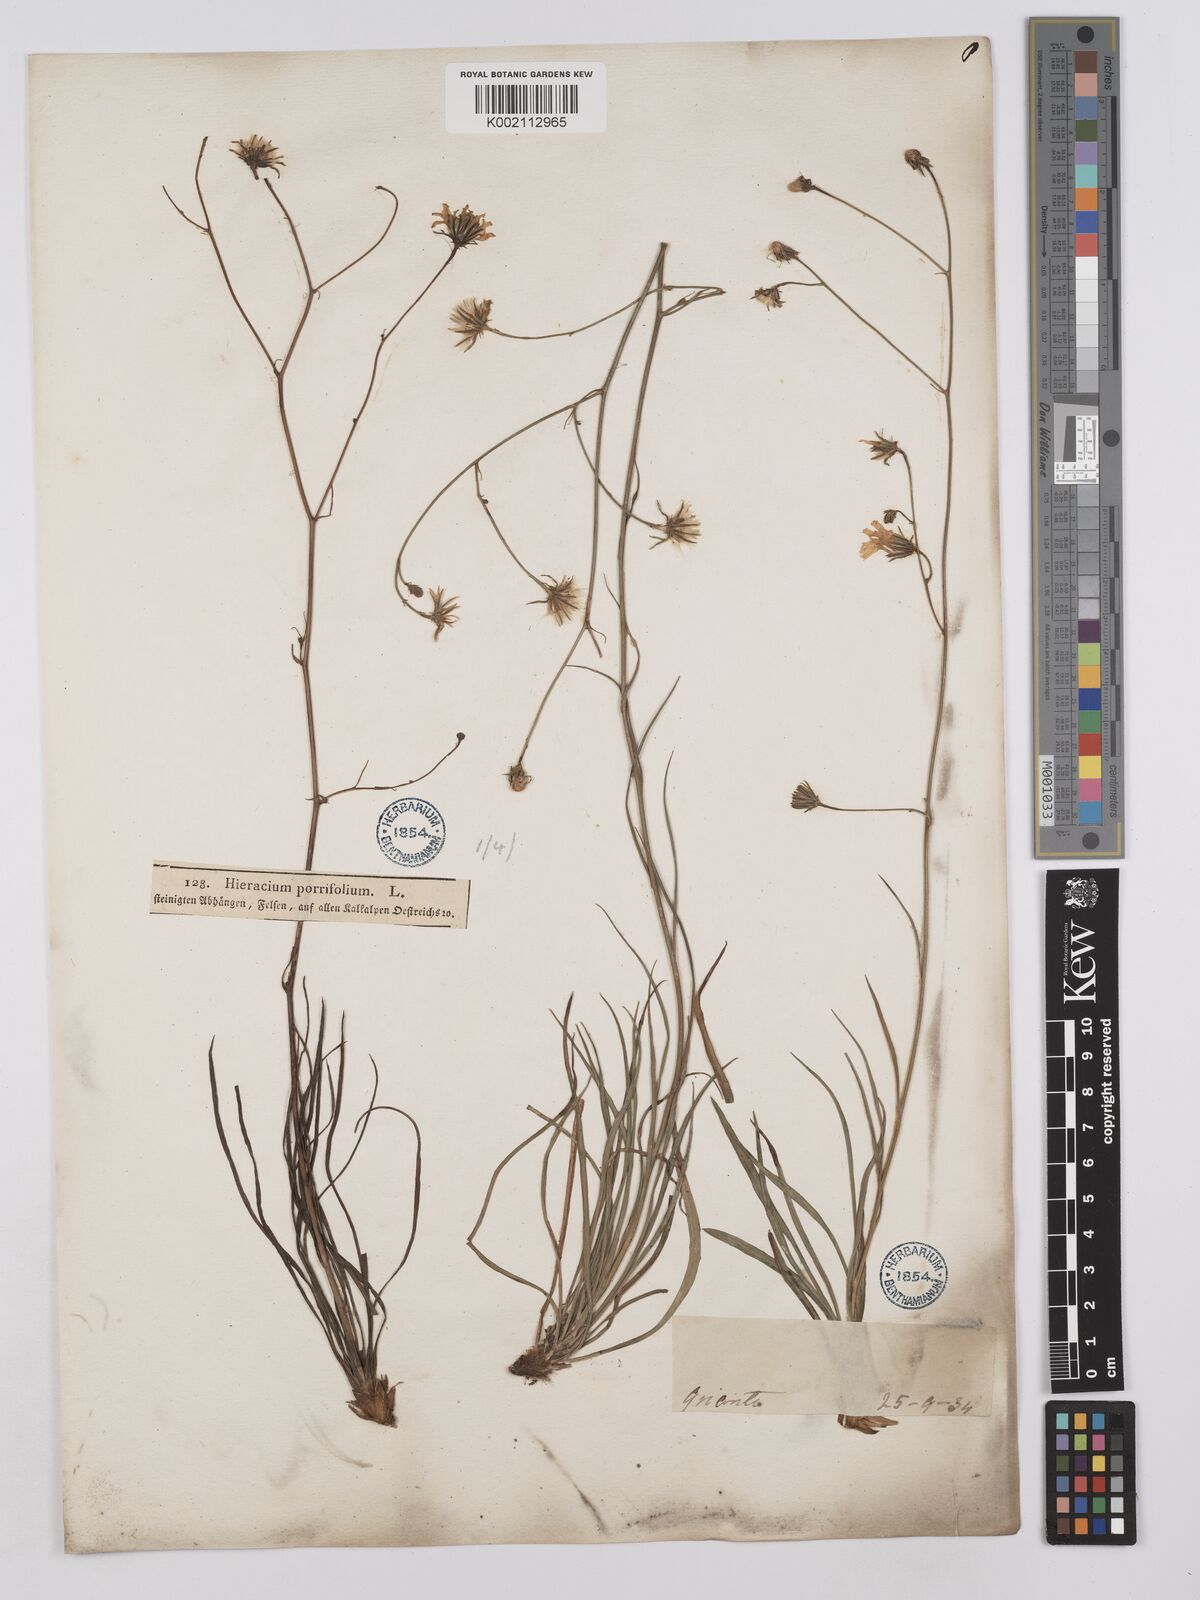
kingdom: Plantae
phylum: Tracheophyta
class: Magnoliopsida
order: Asterales
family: Asteraceae
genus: Hieracium
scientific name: Hieracium porrifolium
